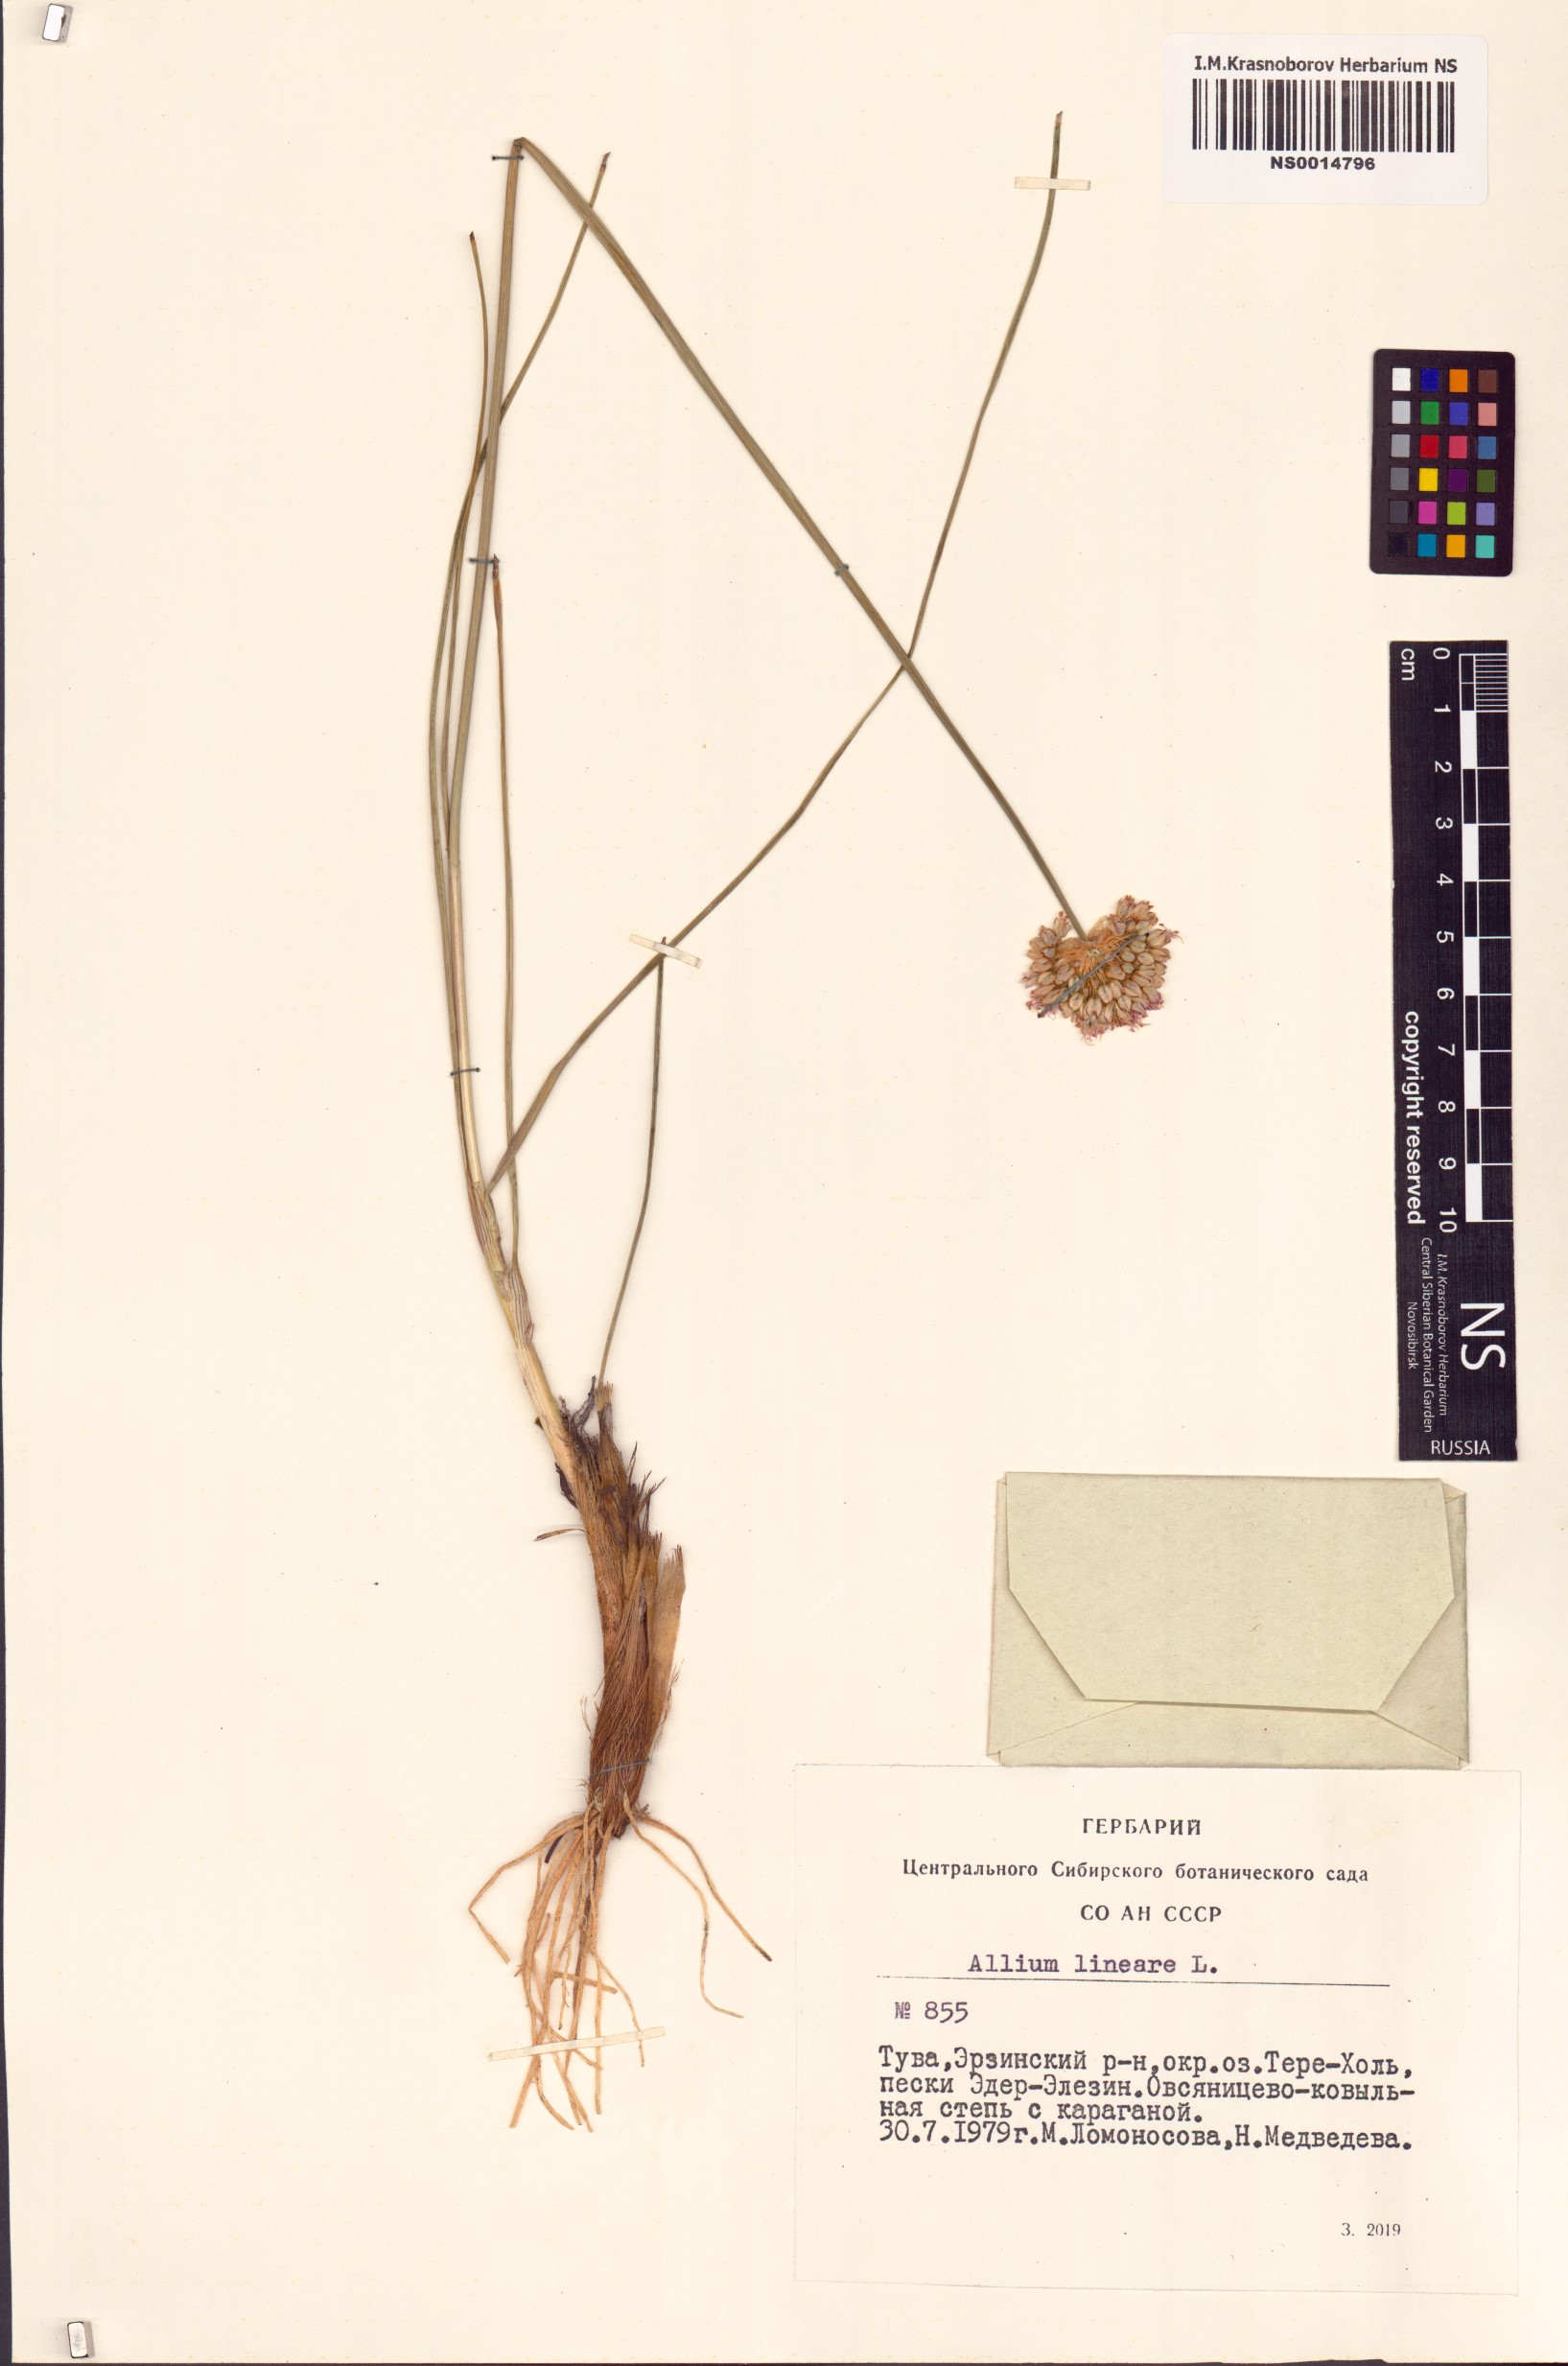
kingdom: Plantae
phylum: Tracheophyta
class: Liliopsida
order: Asparagales
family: Amaryllidaceae
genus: Allium
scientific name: Allium lineare
